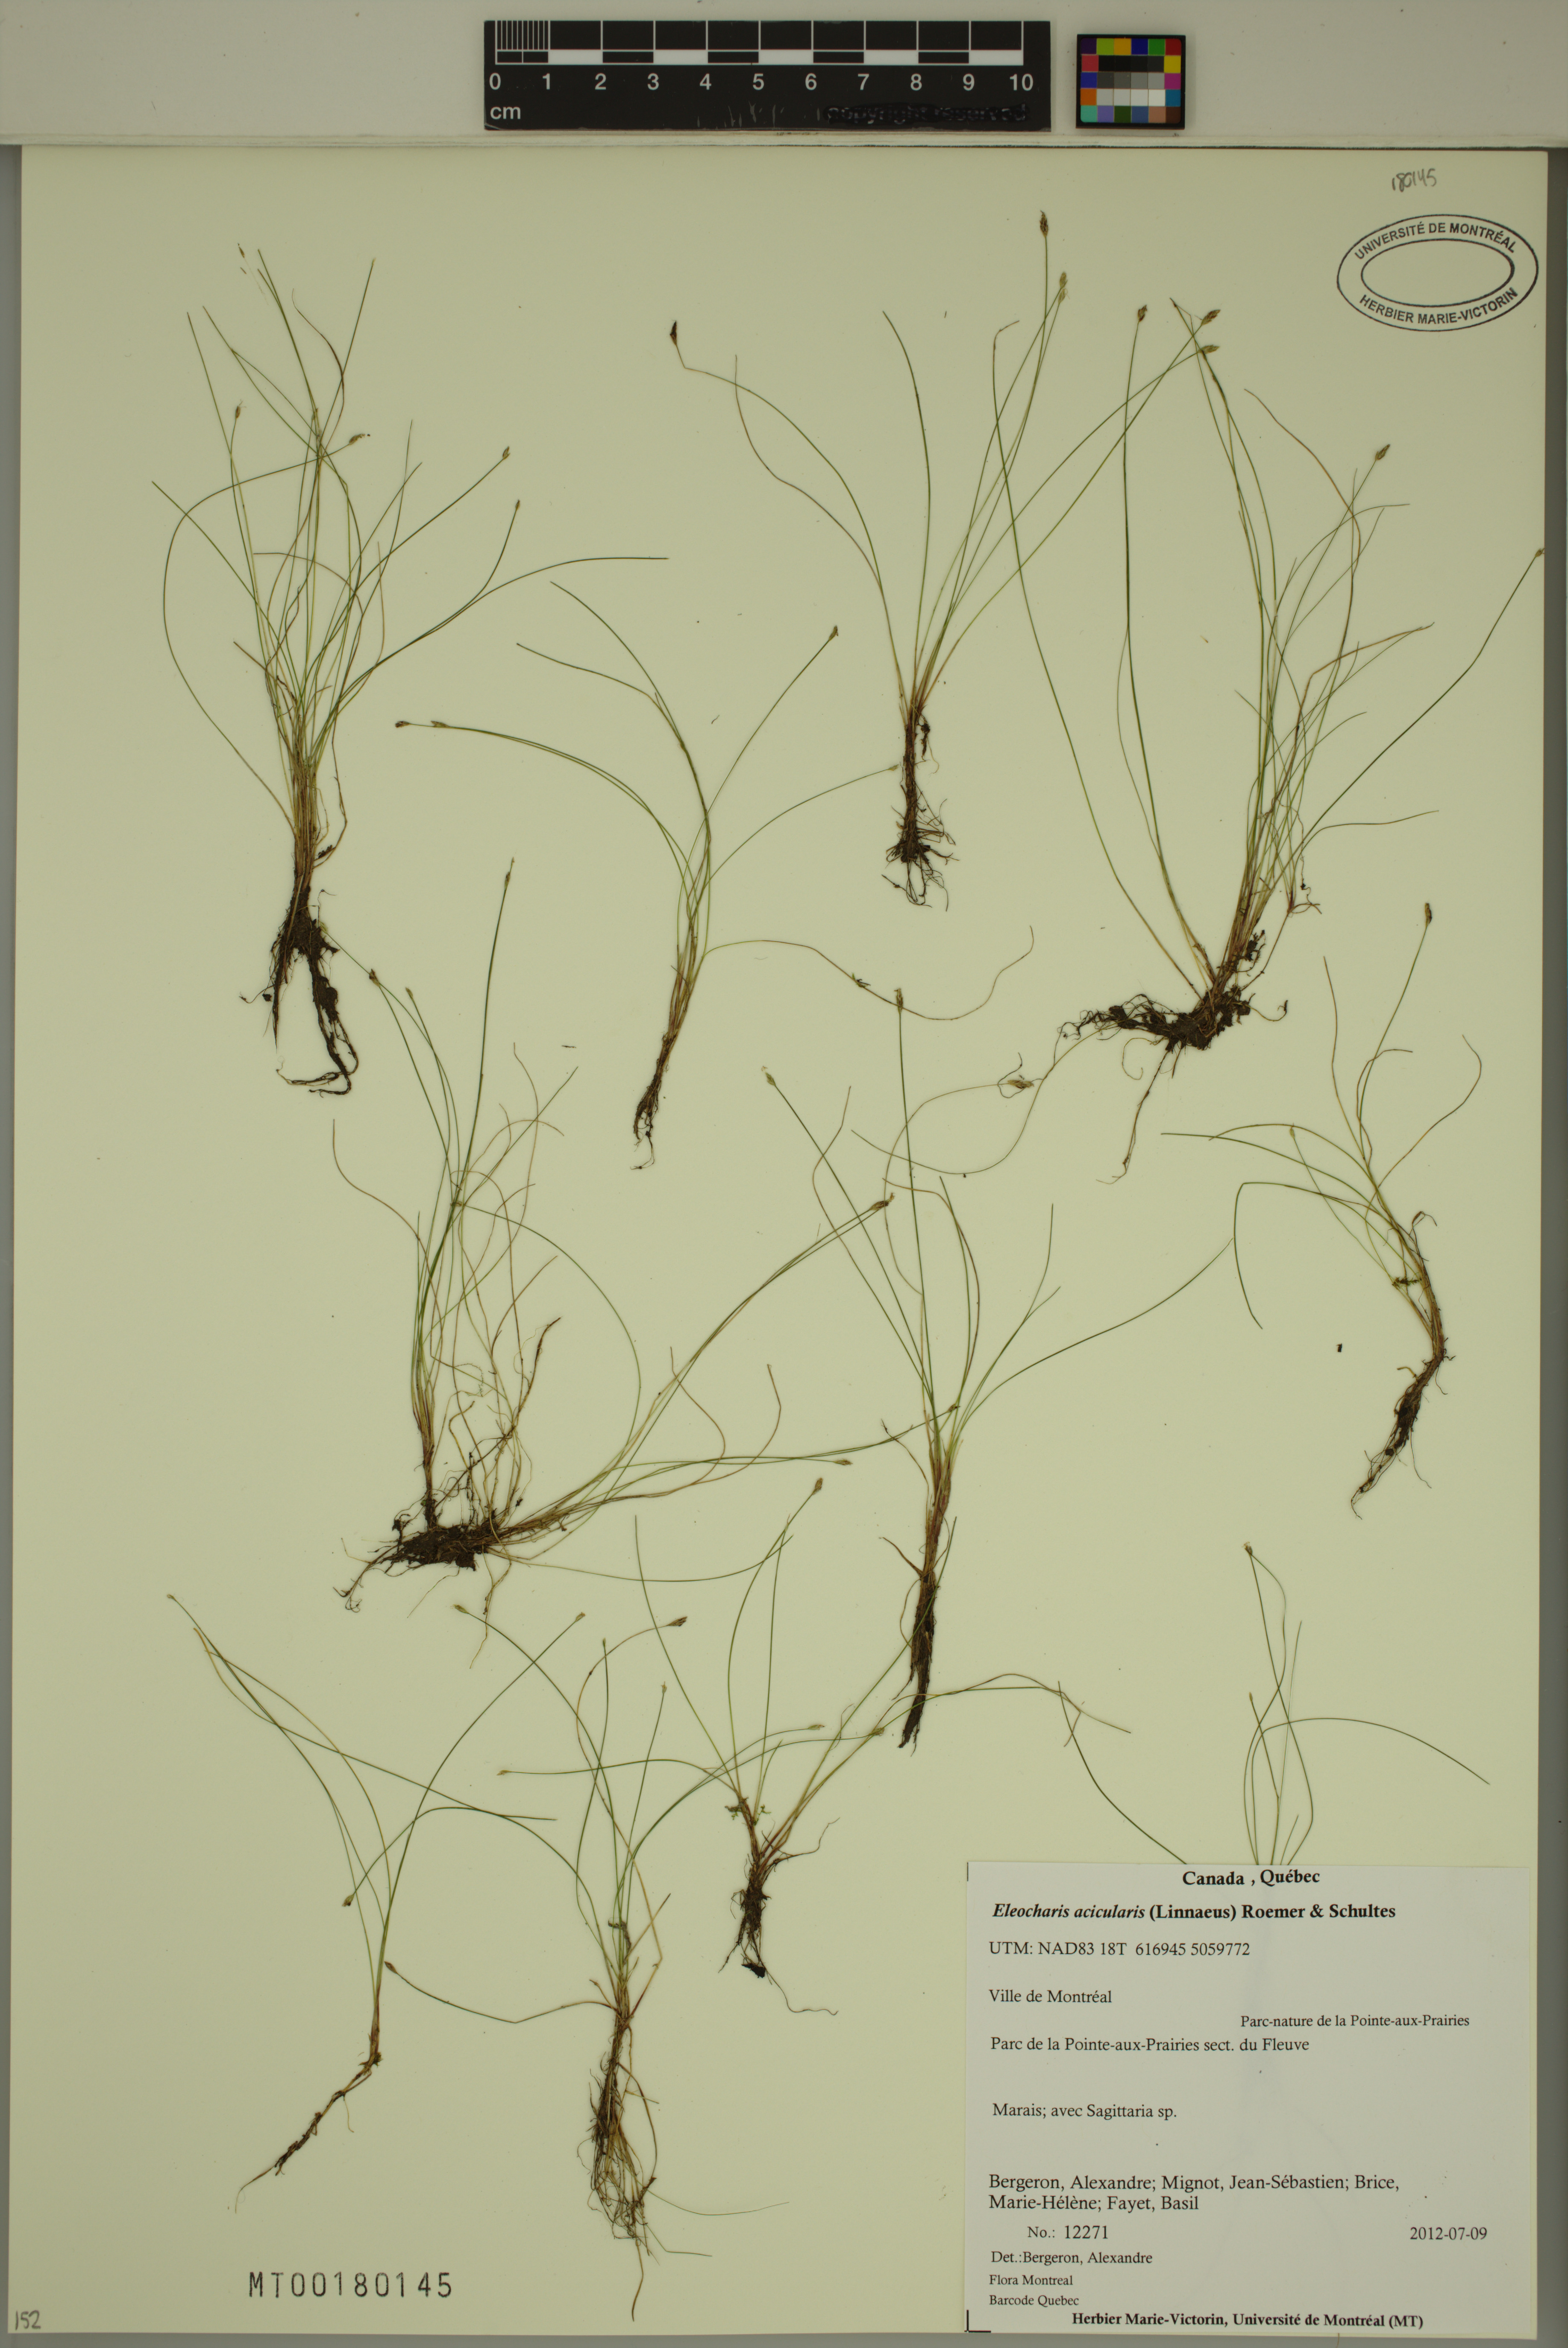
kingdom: Plantae
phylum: Tracheophyta
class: Liliopsida
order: Poales
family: Cyperaceae
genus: Eleocharis
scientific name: Eleocharis acicularis
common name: Needle spike-rush
